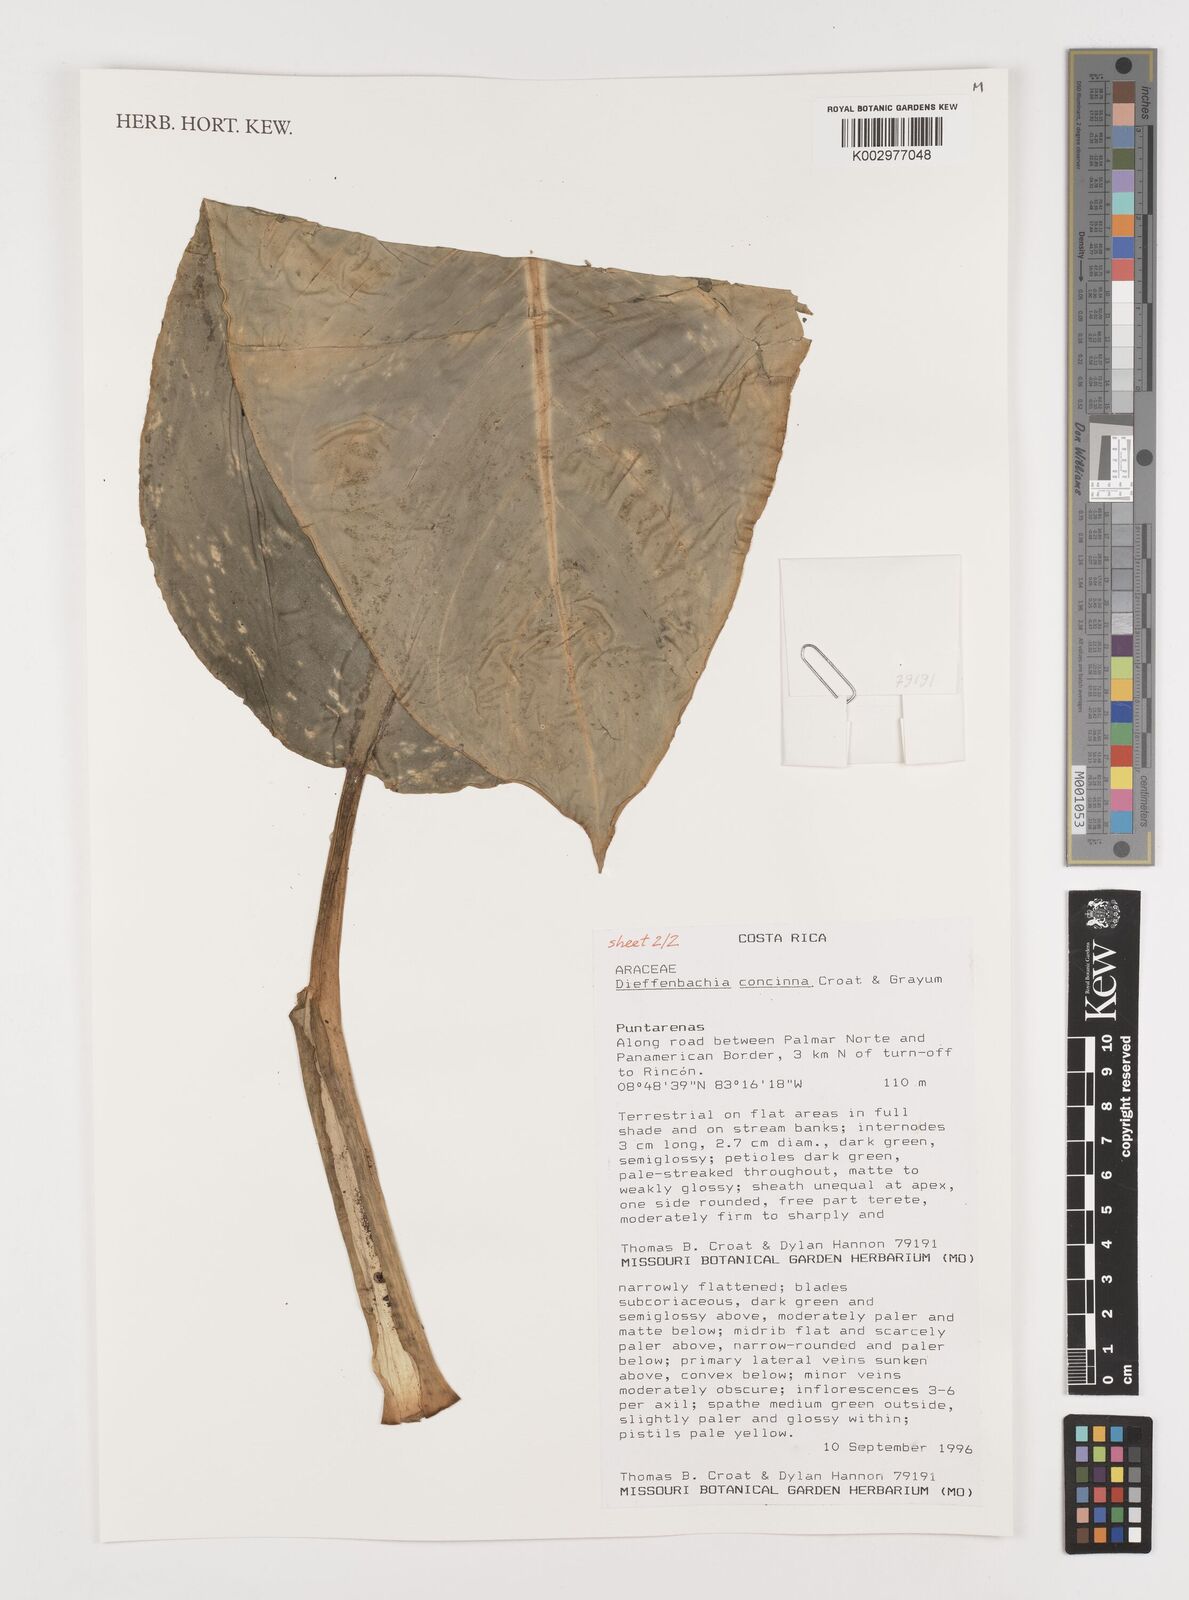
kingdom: Plantae
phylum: Tracheophyta
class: Liliopsida
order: Alismatales
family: Araceae
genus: Dieffenbachia
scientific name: Dieffenbachia concinna
